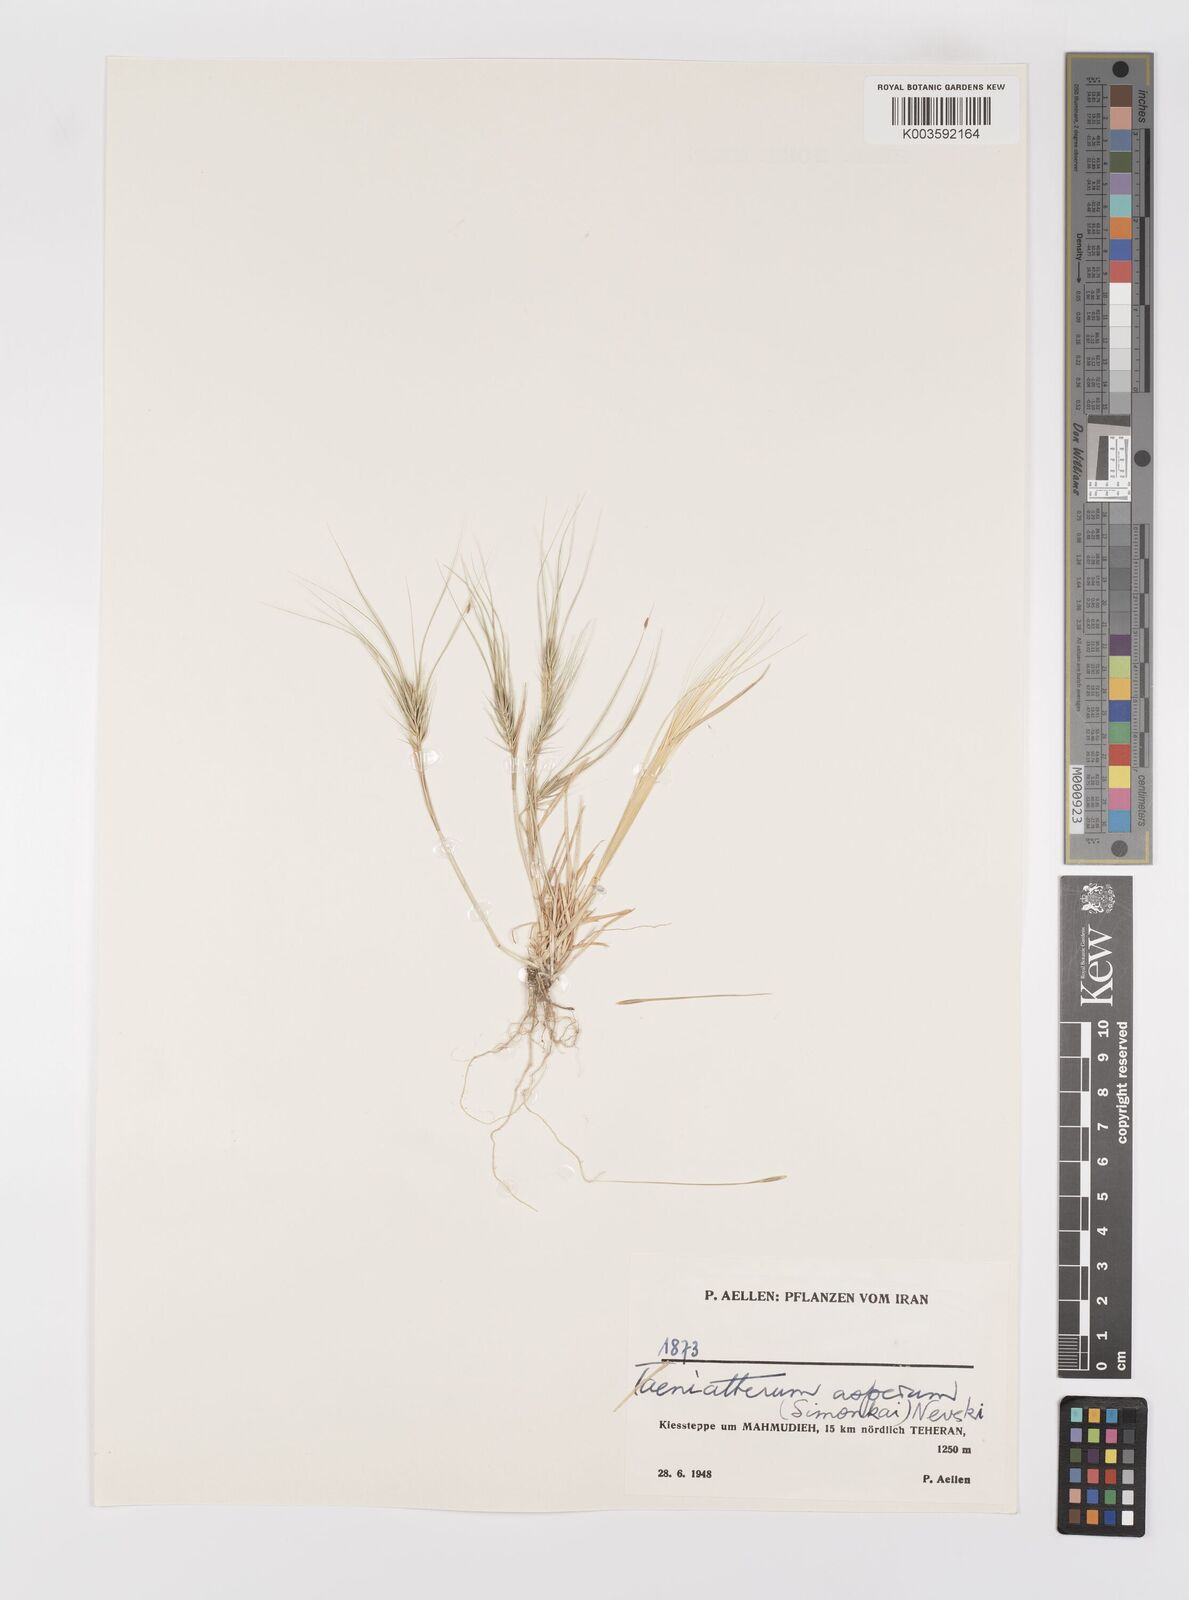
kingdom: Plantae
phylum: Tracheophyta
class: Liliopsida
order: Poales
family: Poaceae
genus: Taeniatherum
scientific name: Taeniatherum caput-medusae
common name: Medusahead
